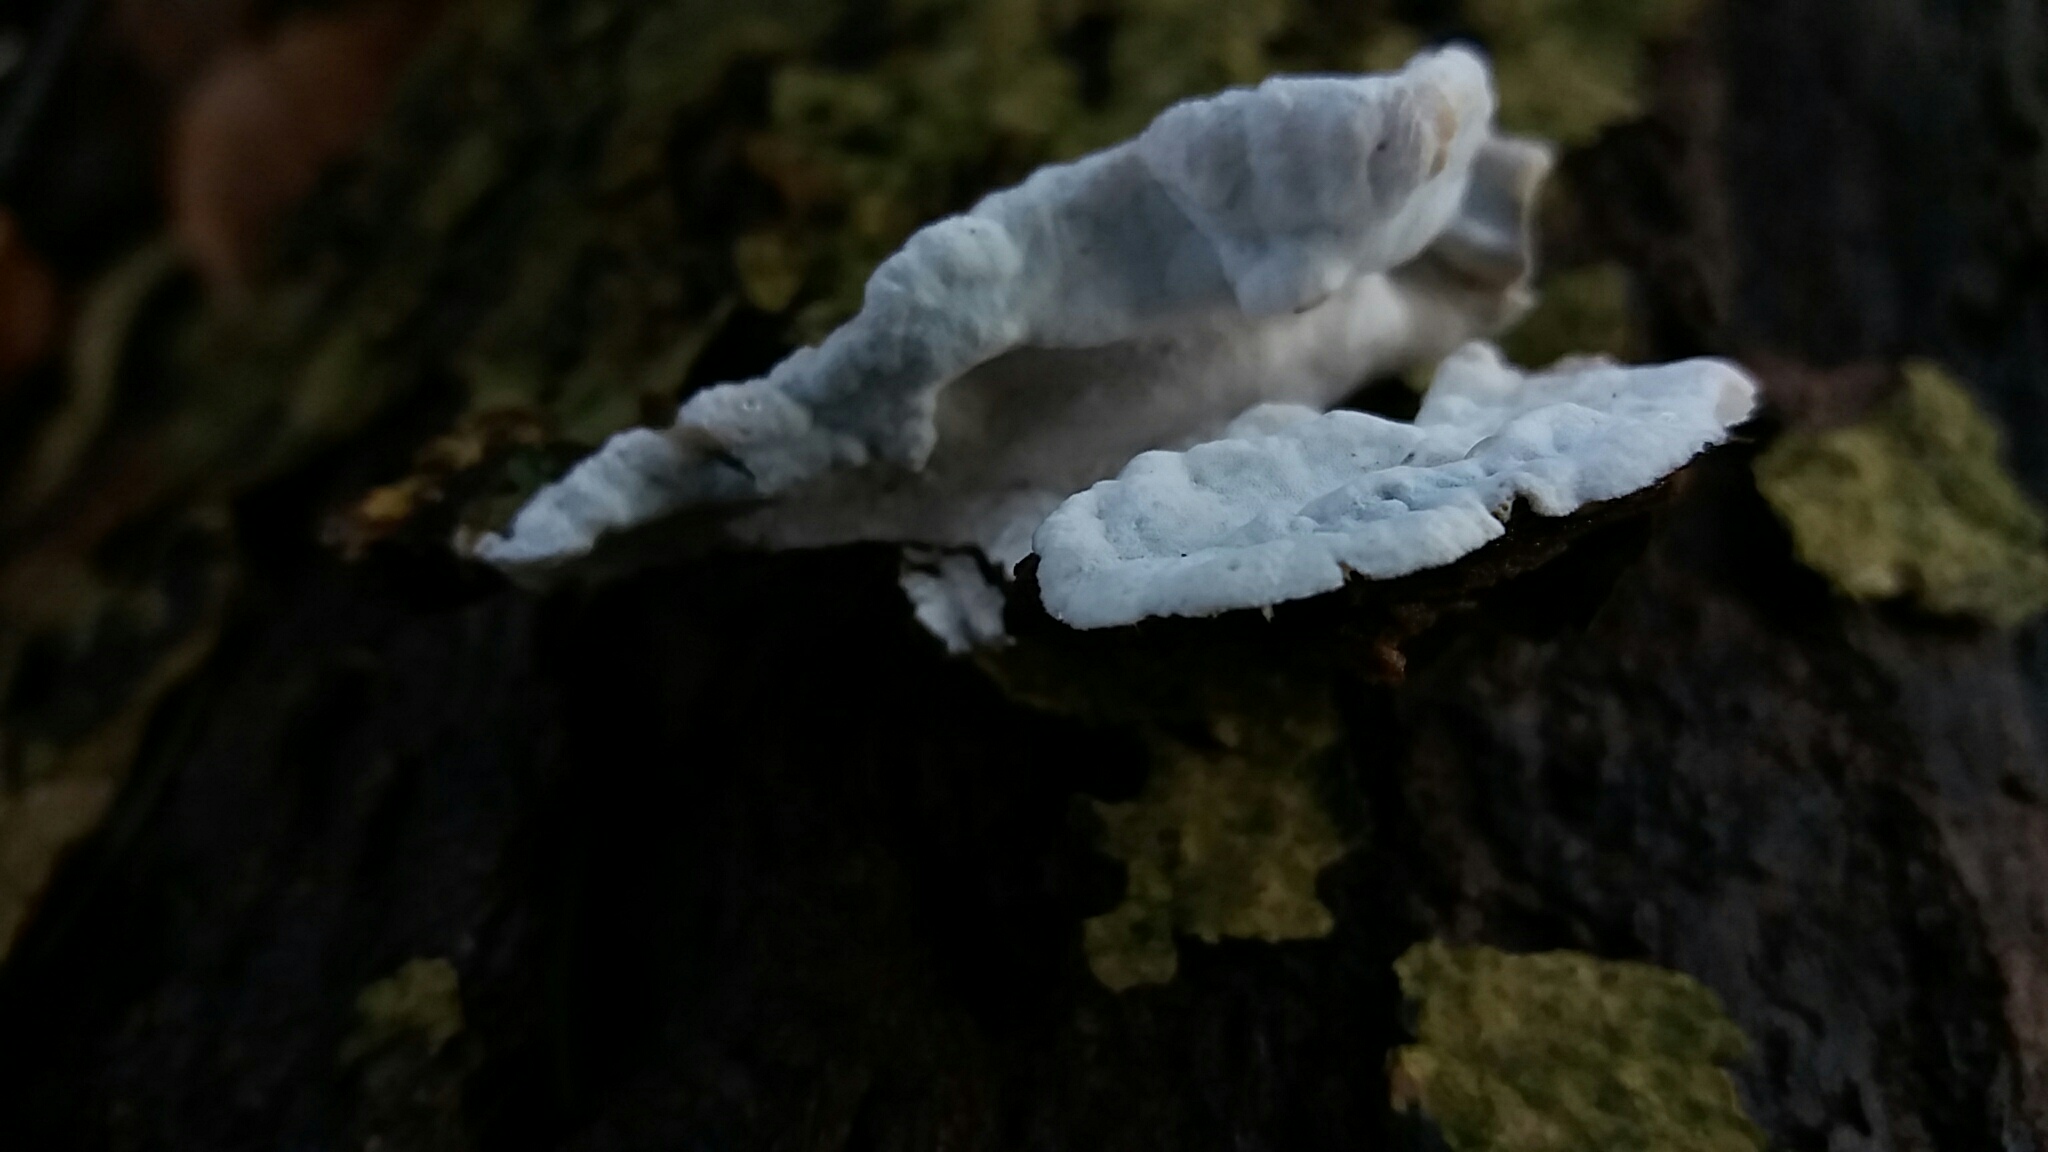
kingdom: Fungi
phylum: Basidiomycota
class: Agaricomycetes
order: Polyporales
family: Incrustoporiaceae
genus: Skeletocutis
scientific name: Skeletocutis nemoralis
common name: stor krystalporesvamp
